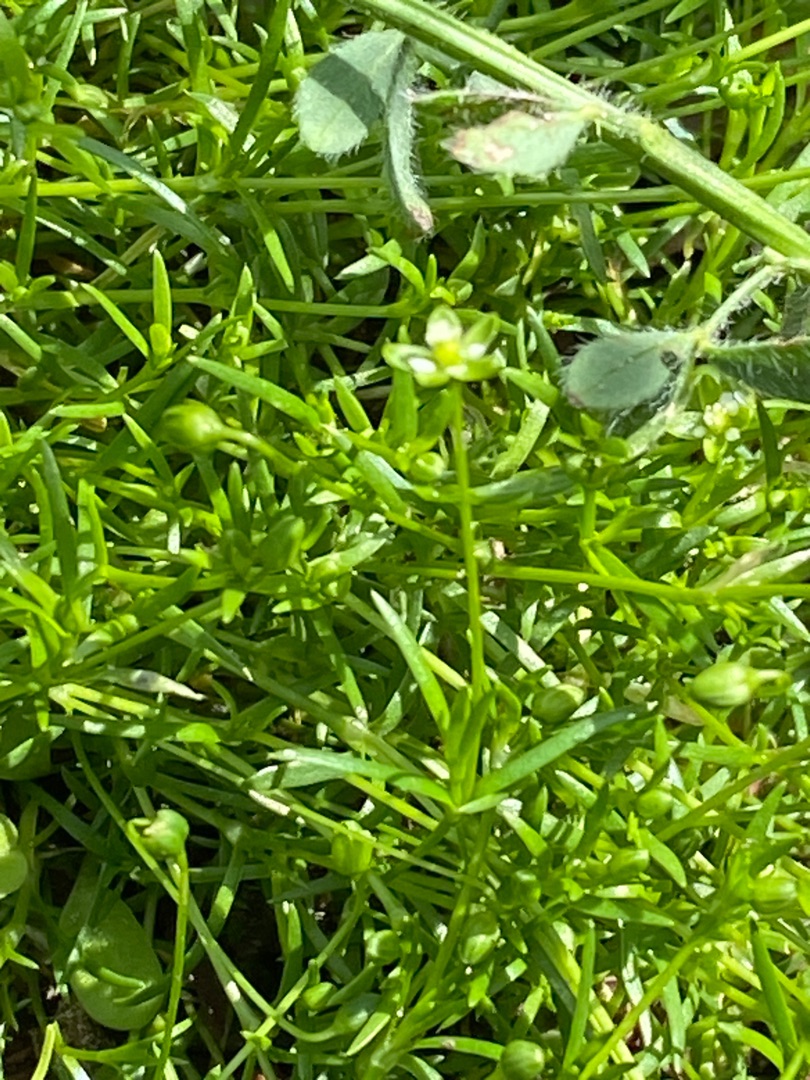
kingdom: Plantae
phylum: Tracheophyta
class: Magnoliopsida
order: Caryophyllales
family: Caryophyllaceae
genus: Sagina
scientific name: Sagina procumbens
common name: Almindelig firling
